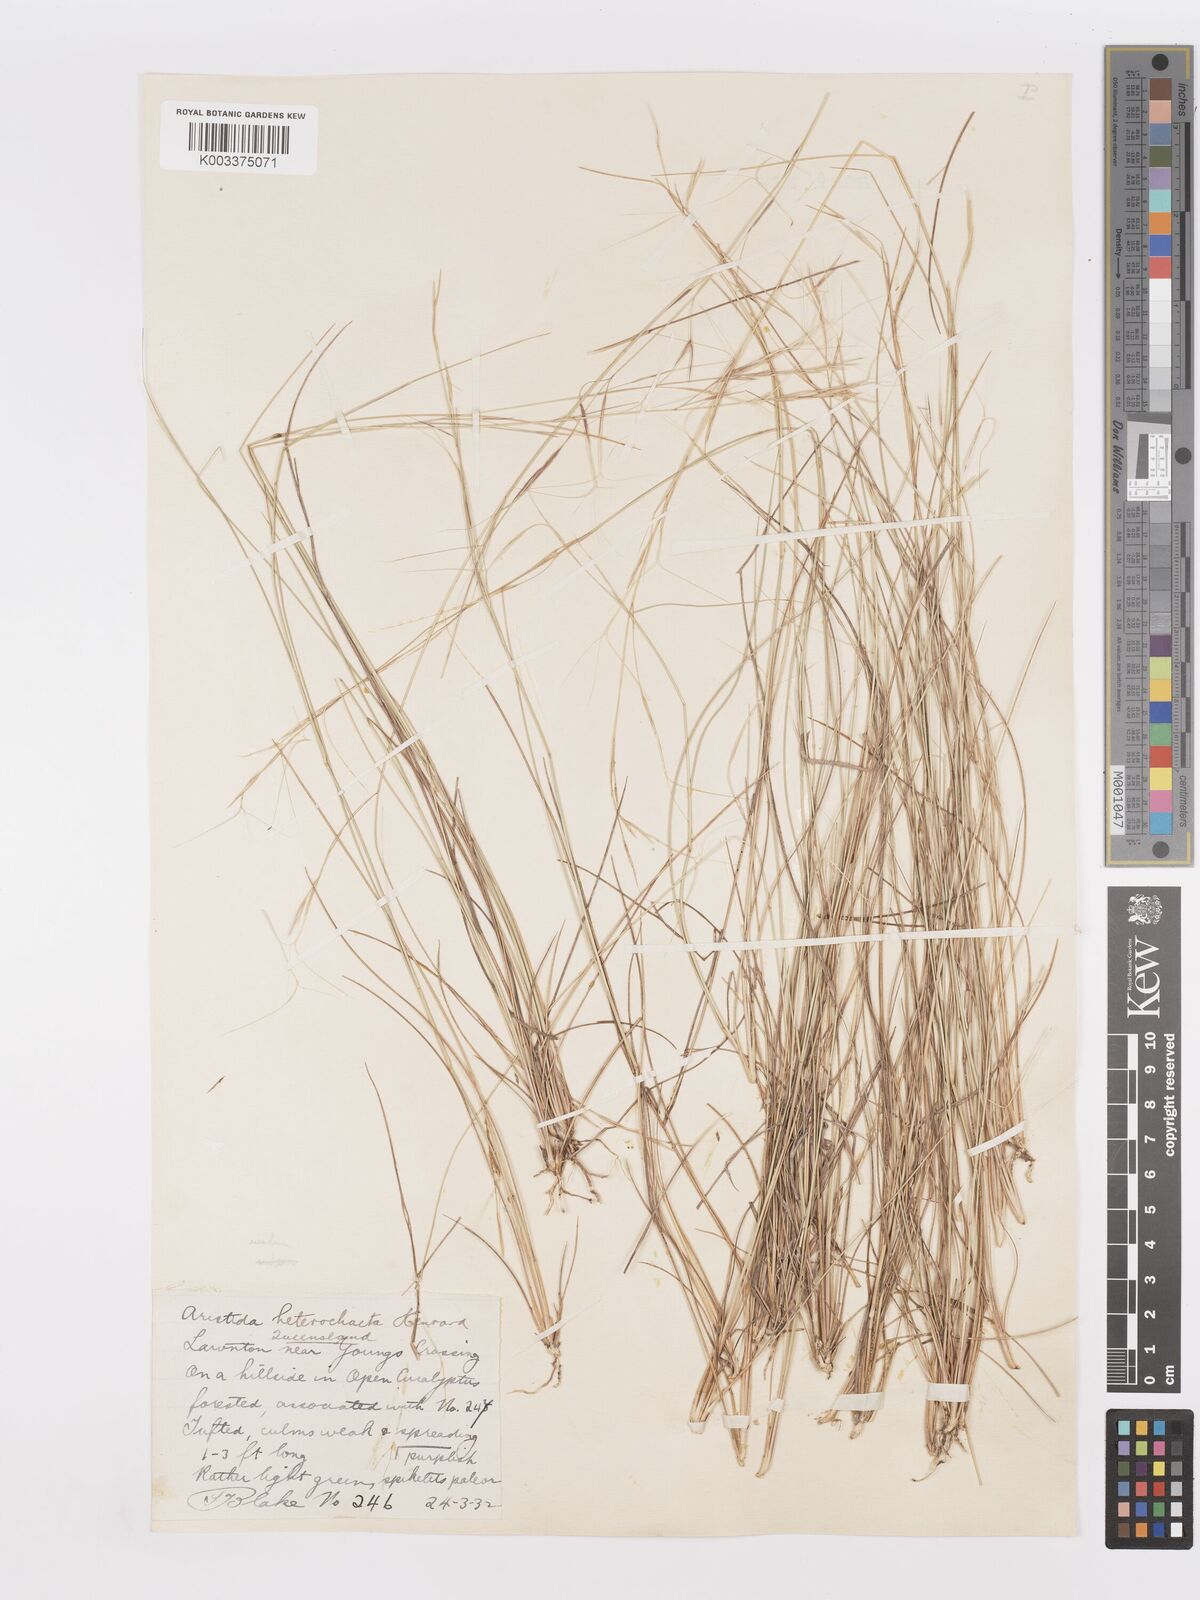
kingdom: Plantae
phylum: Tracheophyta
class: Liliopsida
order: Poales
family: Poaceae
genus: Aristida
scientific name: Aristida warburgii
